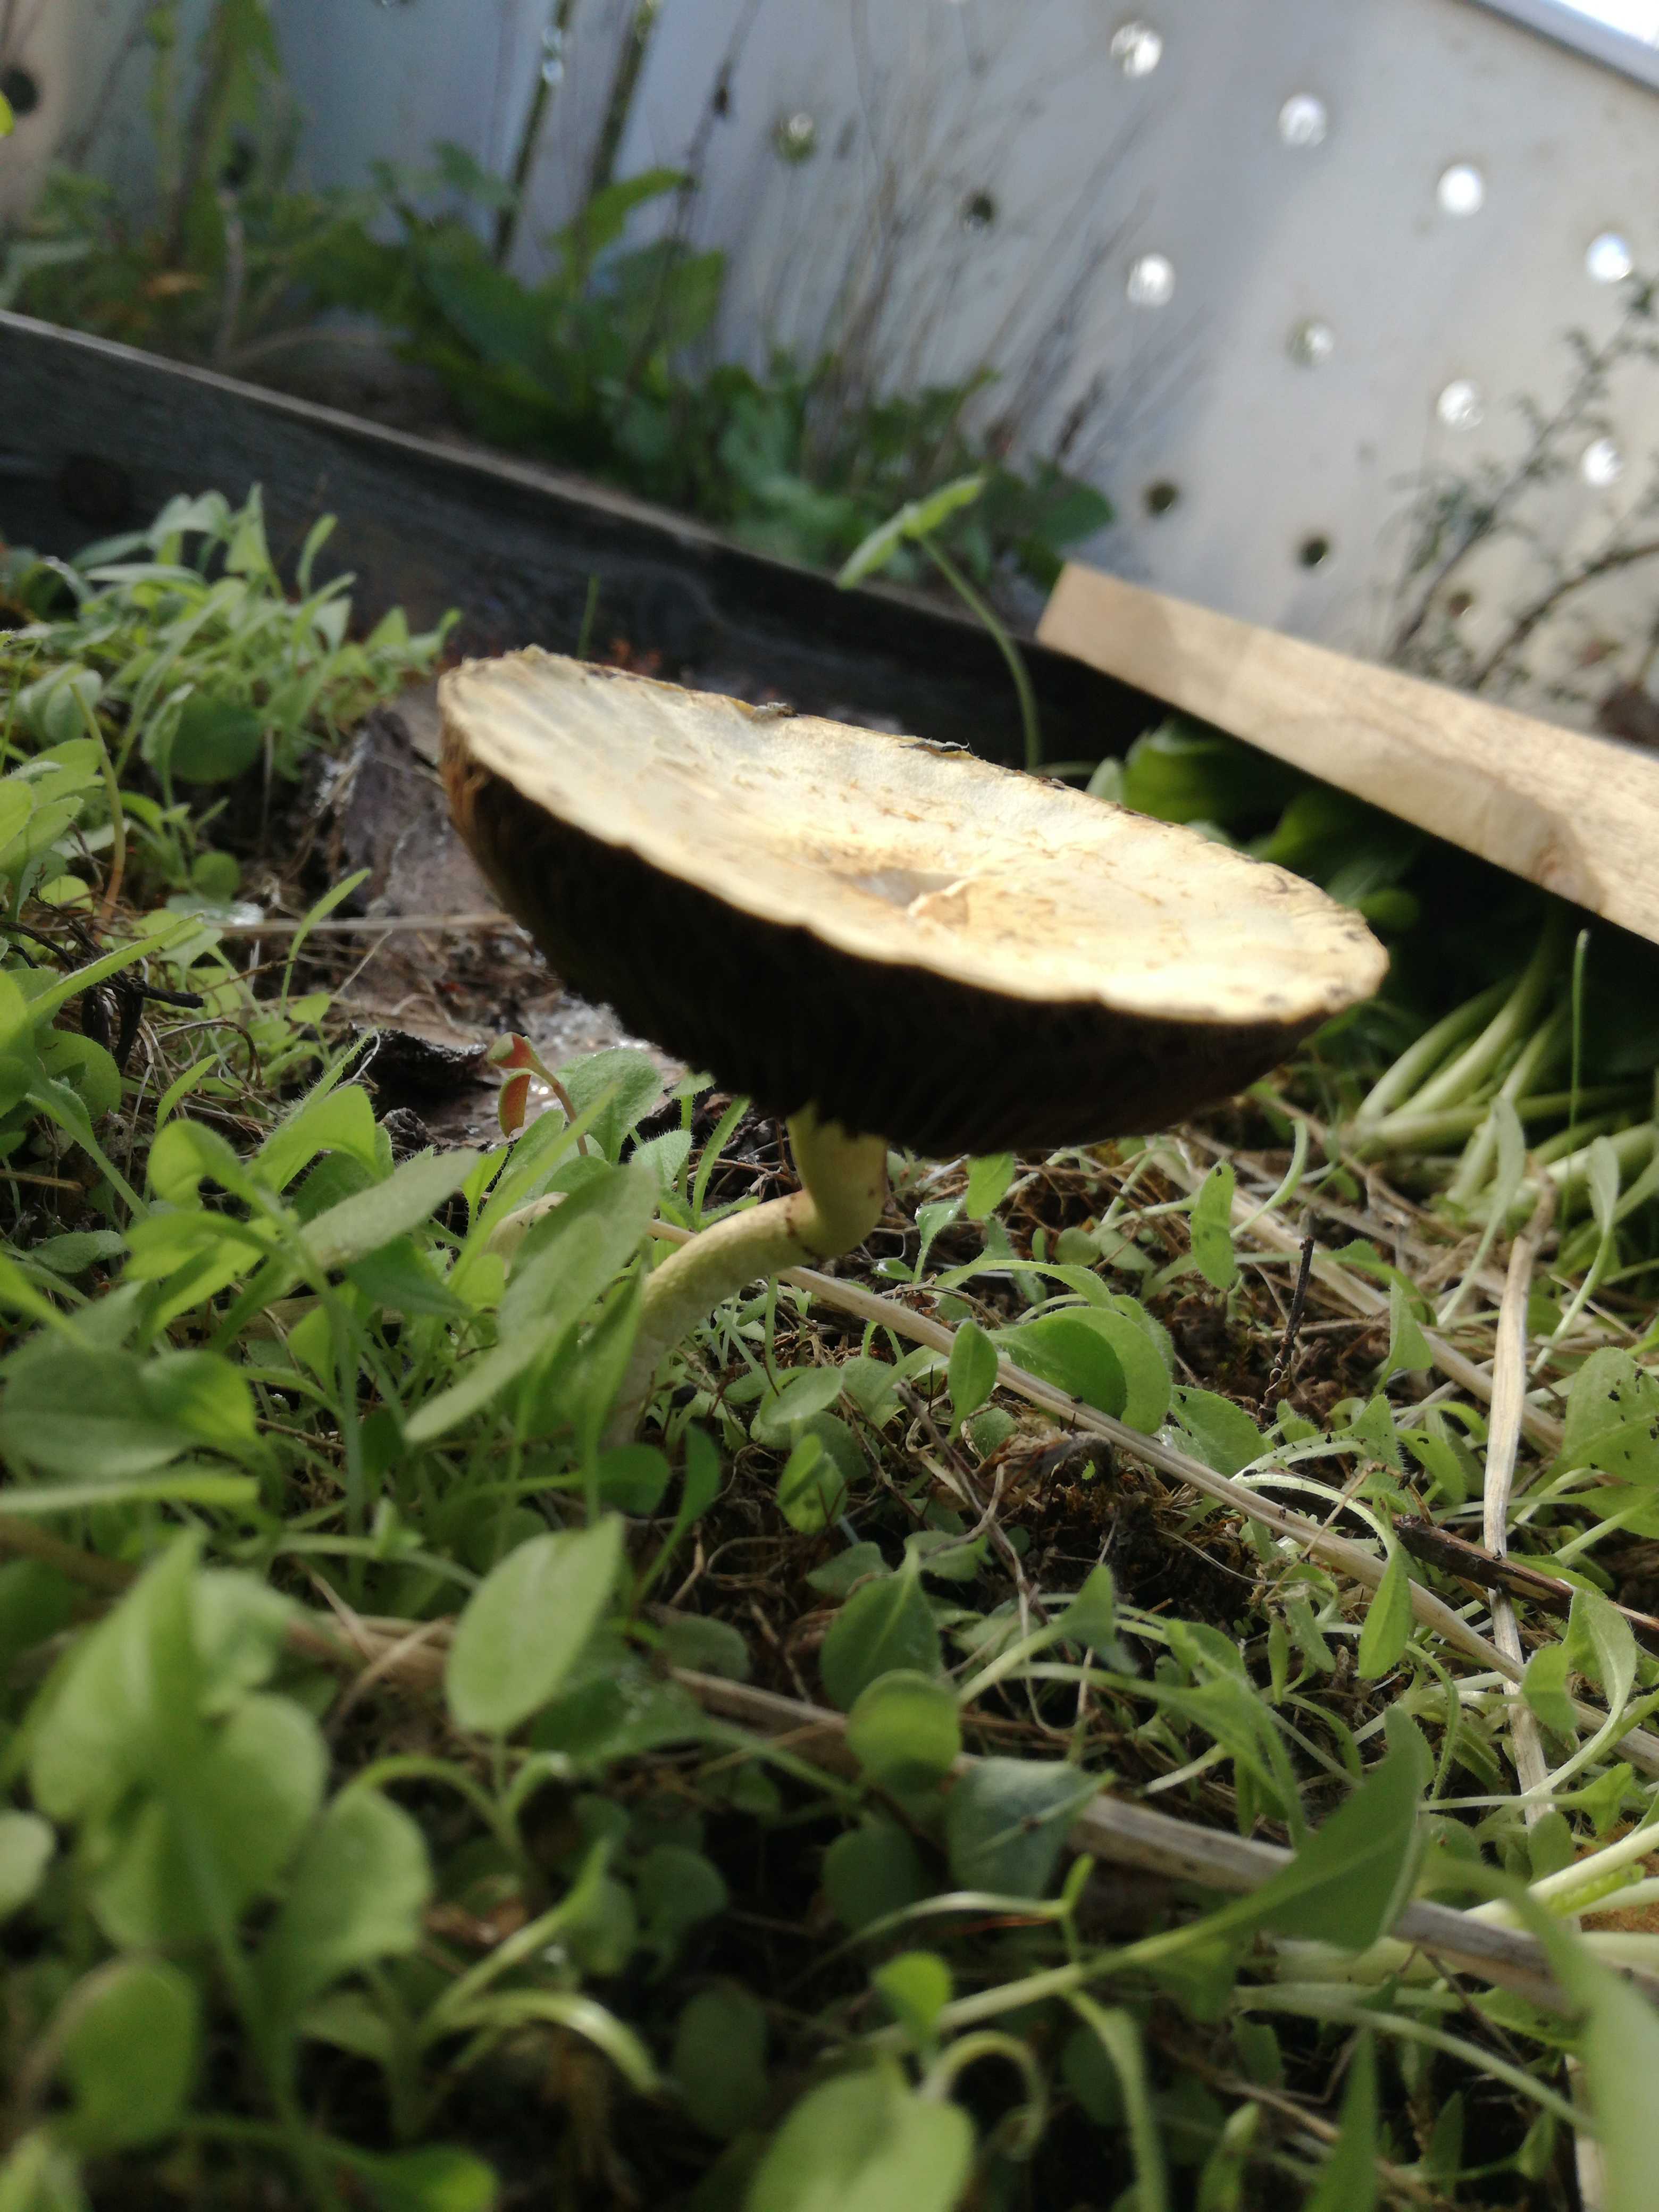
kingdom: Fungi
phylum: Basidiomycota
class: Agaricomycetes
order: Agaricales
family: Strophariaceae
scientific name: Strophariaceae
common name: bredbladfamilien
